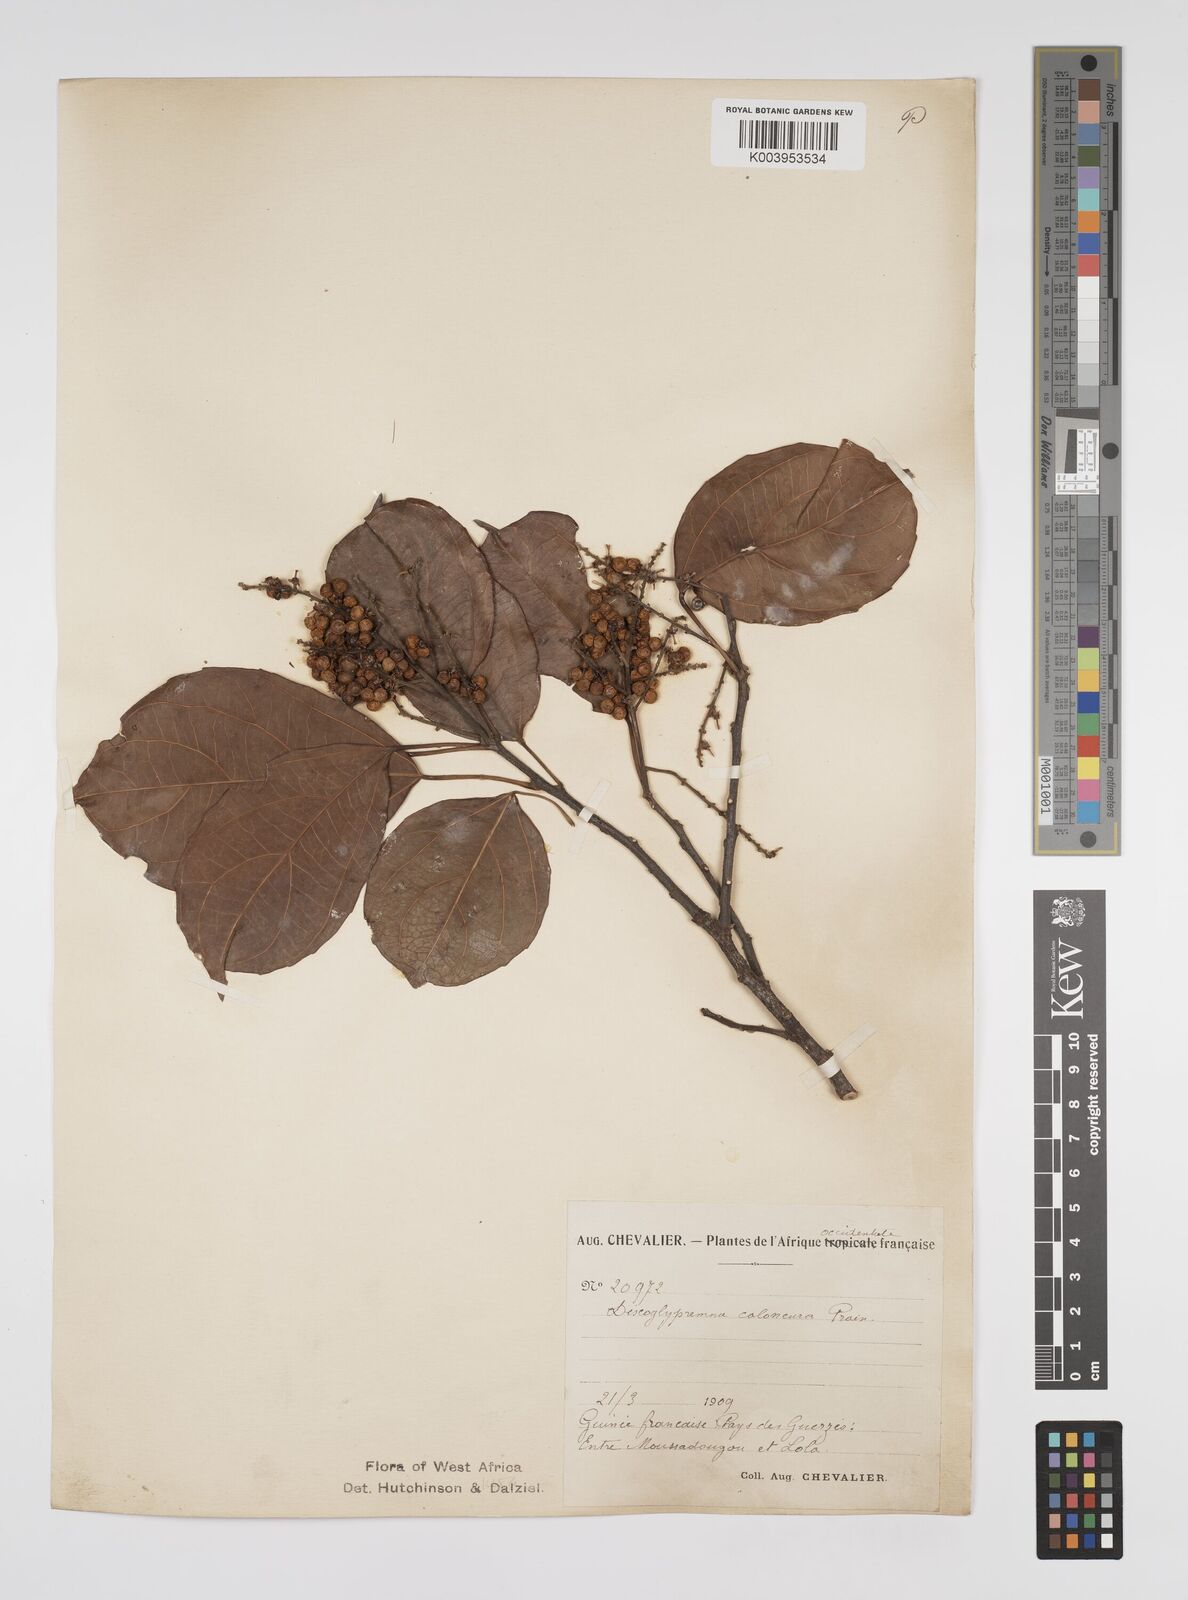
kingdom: Plantae
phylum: Tracheophyta
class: Magnoliopsida
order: Malpighiales
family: Euphorbiaceae
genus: Discoglypremna
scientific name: Discoglypremna caloneura
